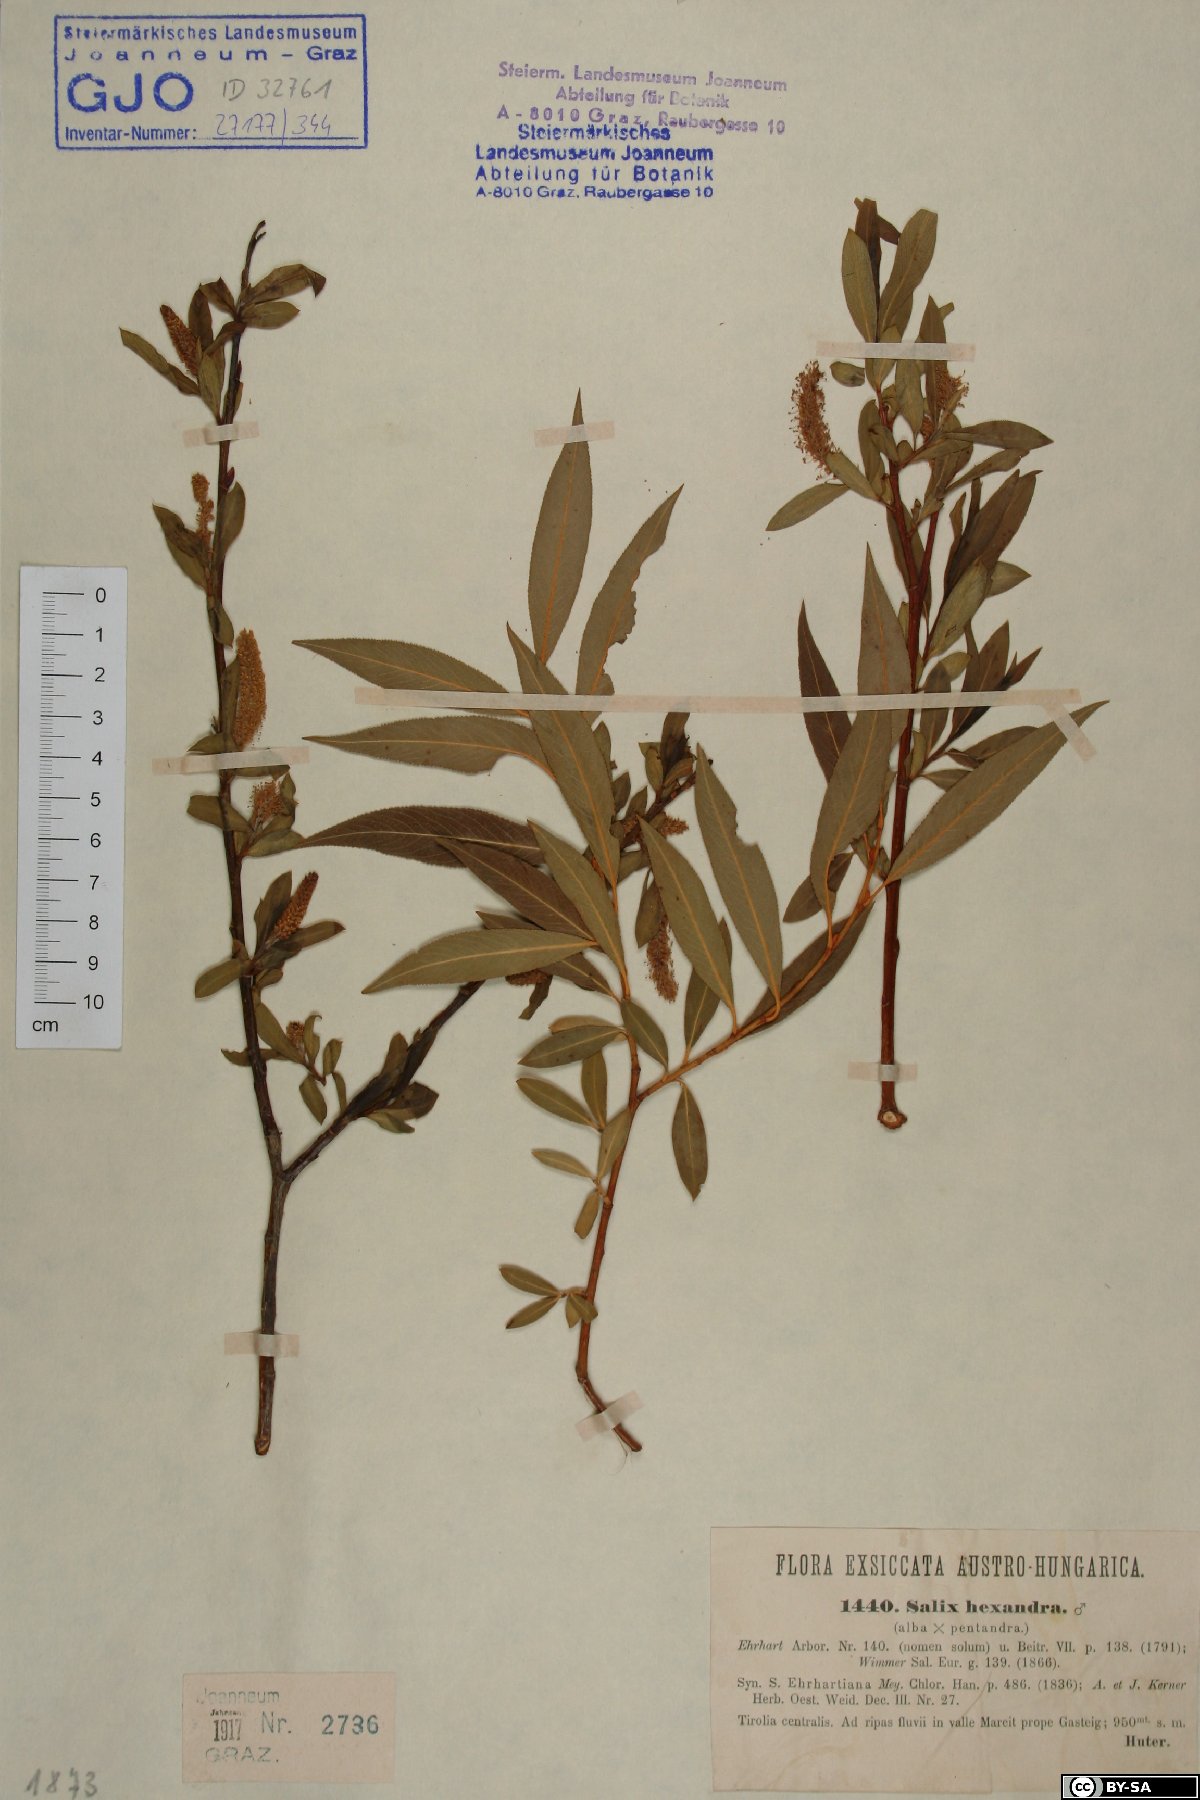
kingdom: Plantae
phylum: Tracheophyta
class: Magnoliopsida
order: Malpighiales
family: Salicaceae
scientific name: Salicaceae
